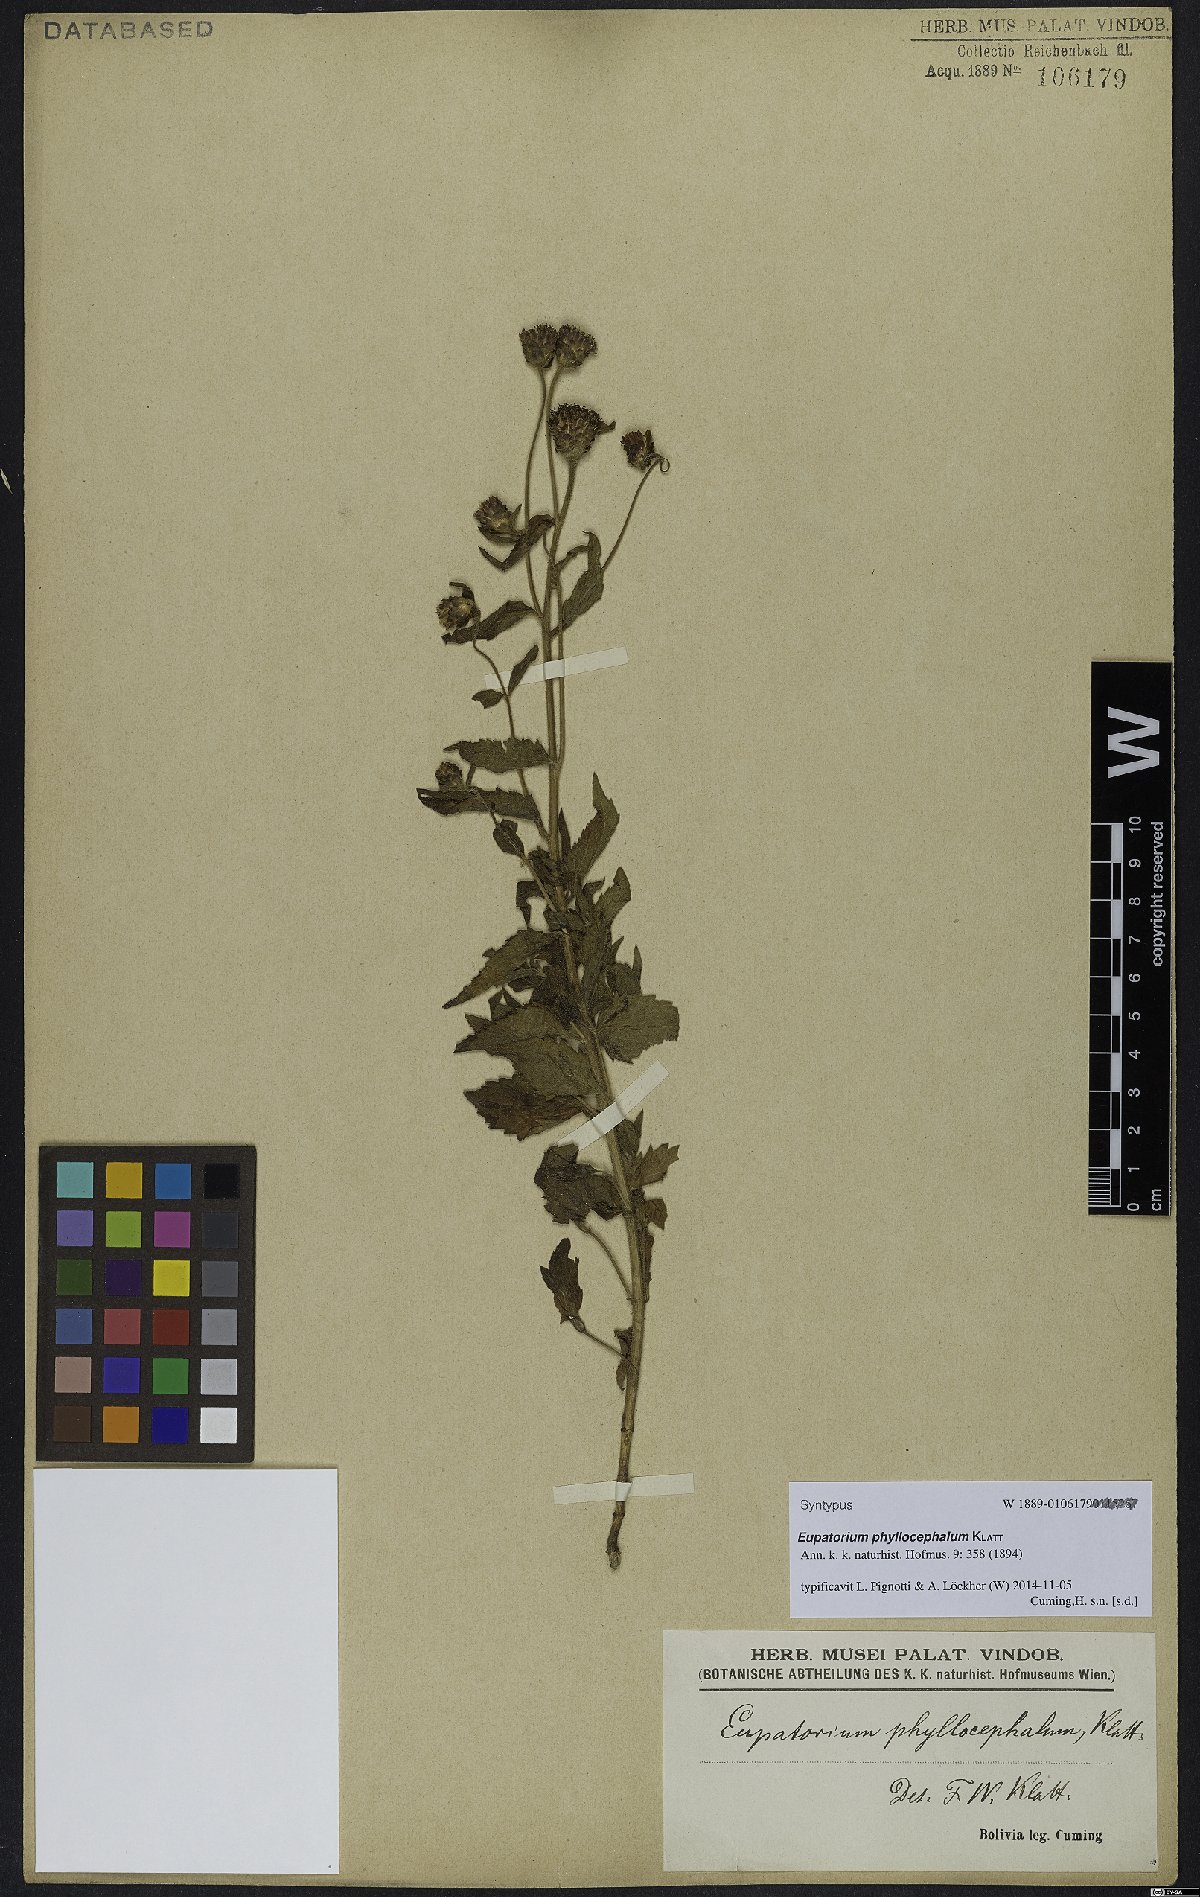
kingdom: Plantae
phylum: Tracheophyta
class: Magnoliopsida
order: Asterales
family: Asteraceae
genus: Chromolaena
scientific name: Chromolaena hirsuta
